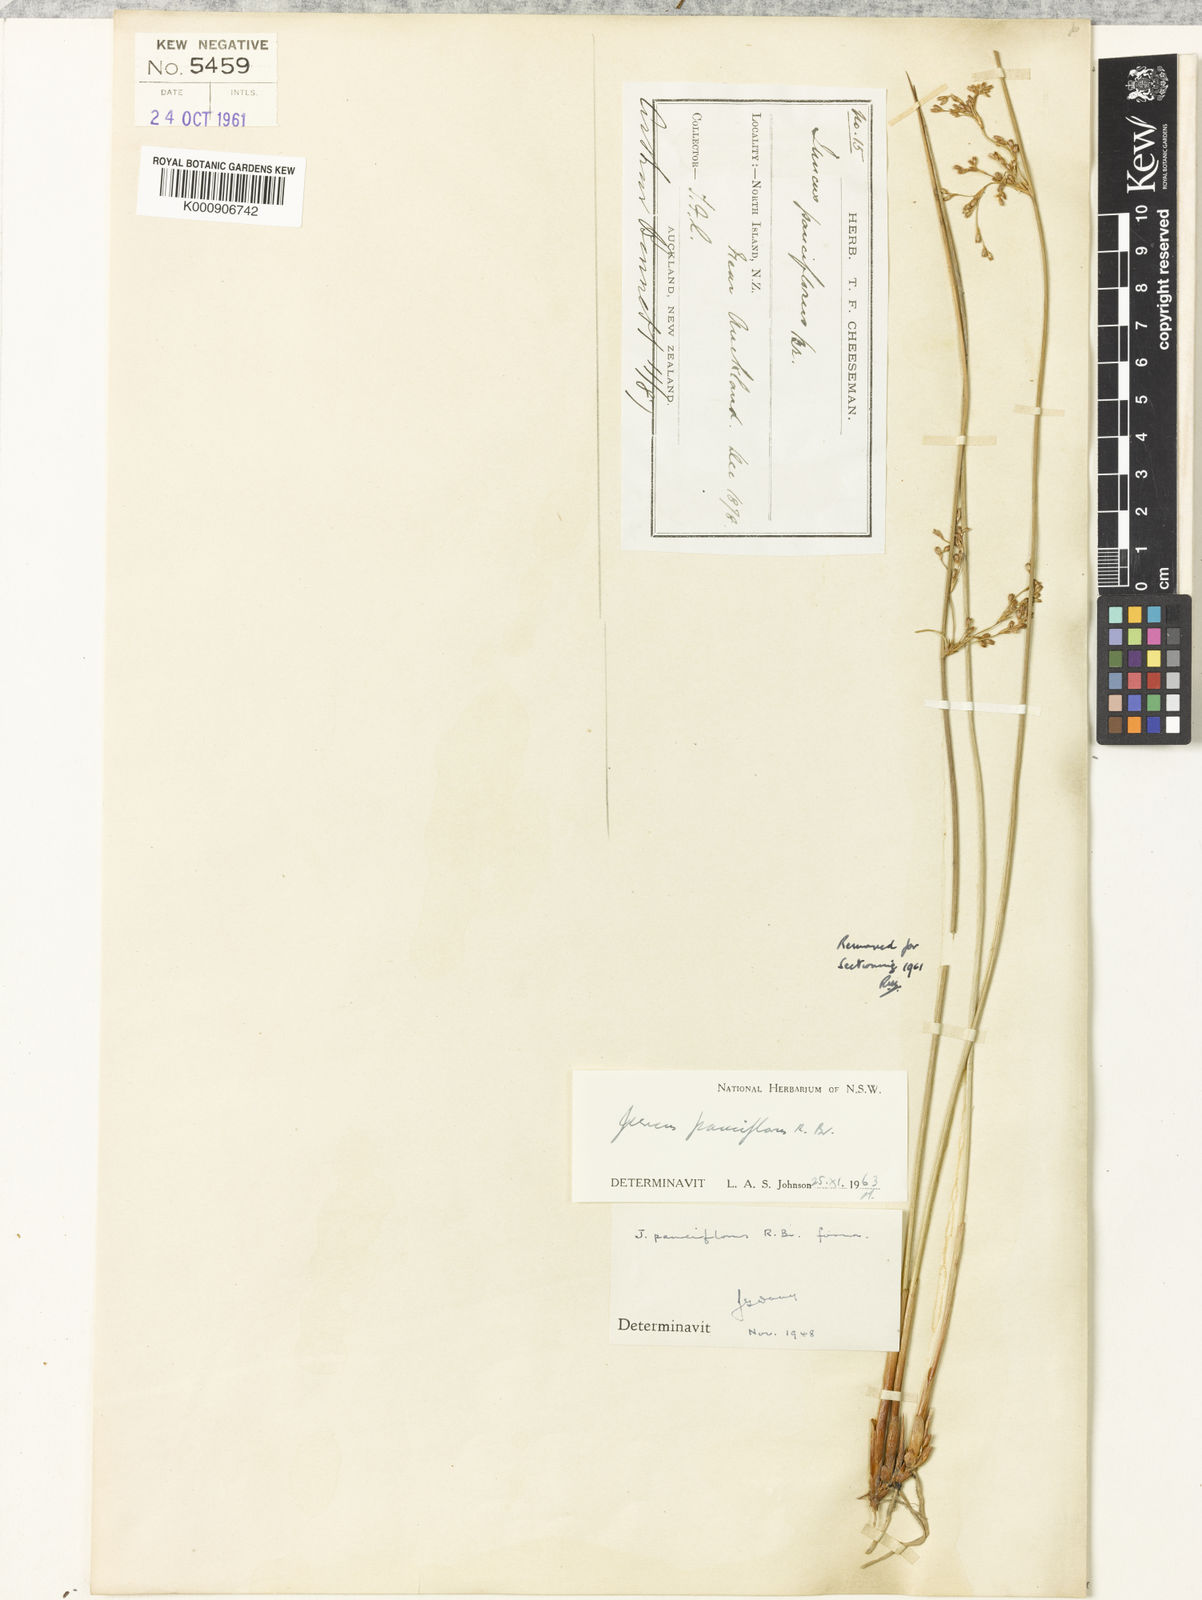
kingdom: Plantae
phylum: Tracheophyta
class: Liliopsida
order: Poales
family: Juncaceae
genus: Juncus
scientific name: Juncus pauciflorus
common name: Loose-flowered rush
